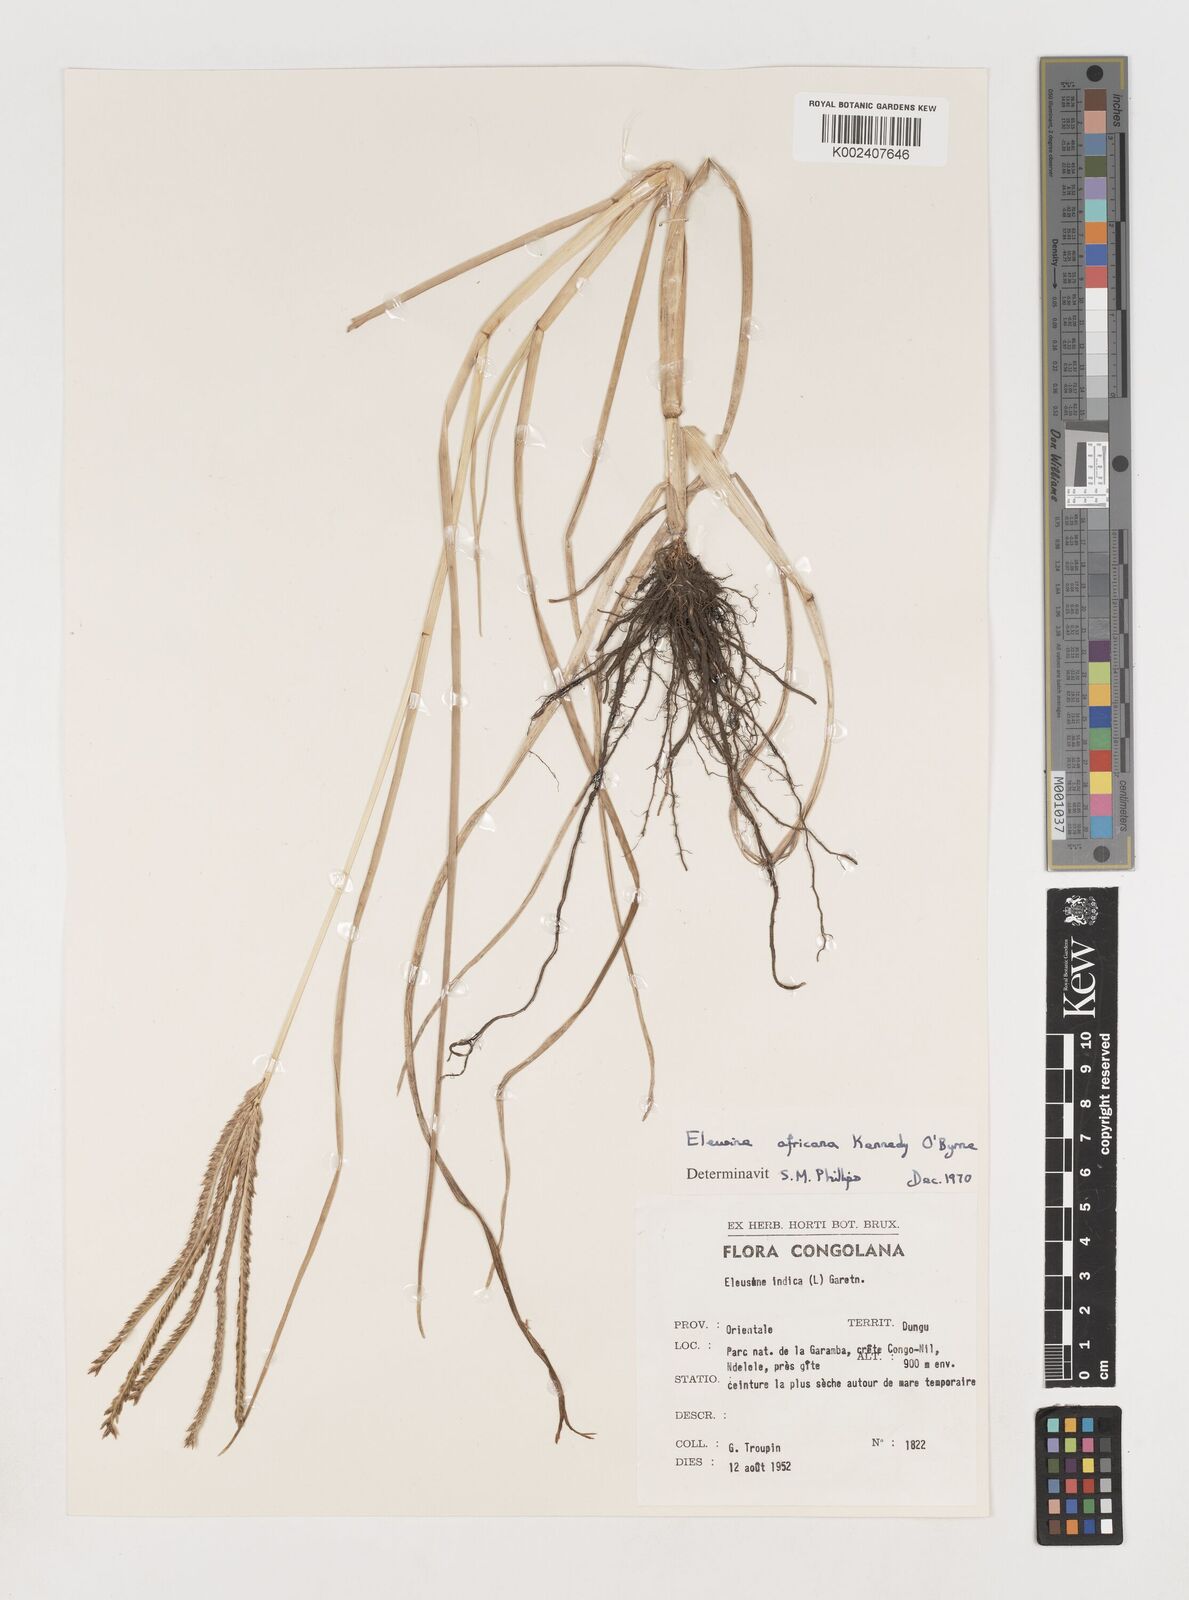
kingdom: Plantae
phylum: Tracheophyta
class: Liliopsida
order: Poales
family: Poaceae
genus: Eleusine
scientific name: Eleusine africana
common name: Wild african finger millet
